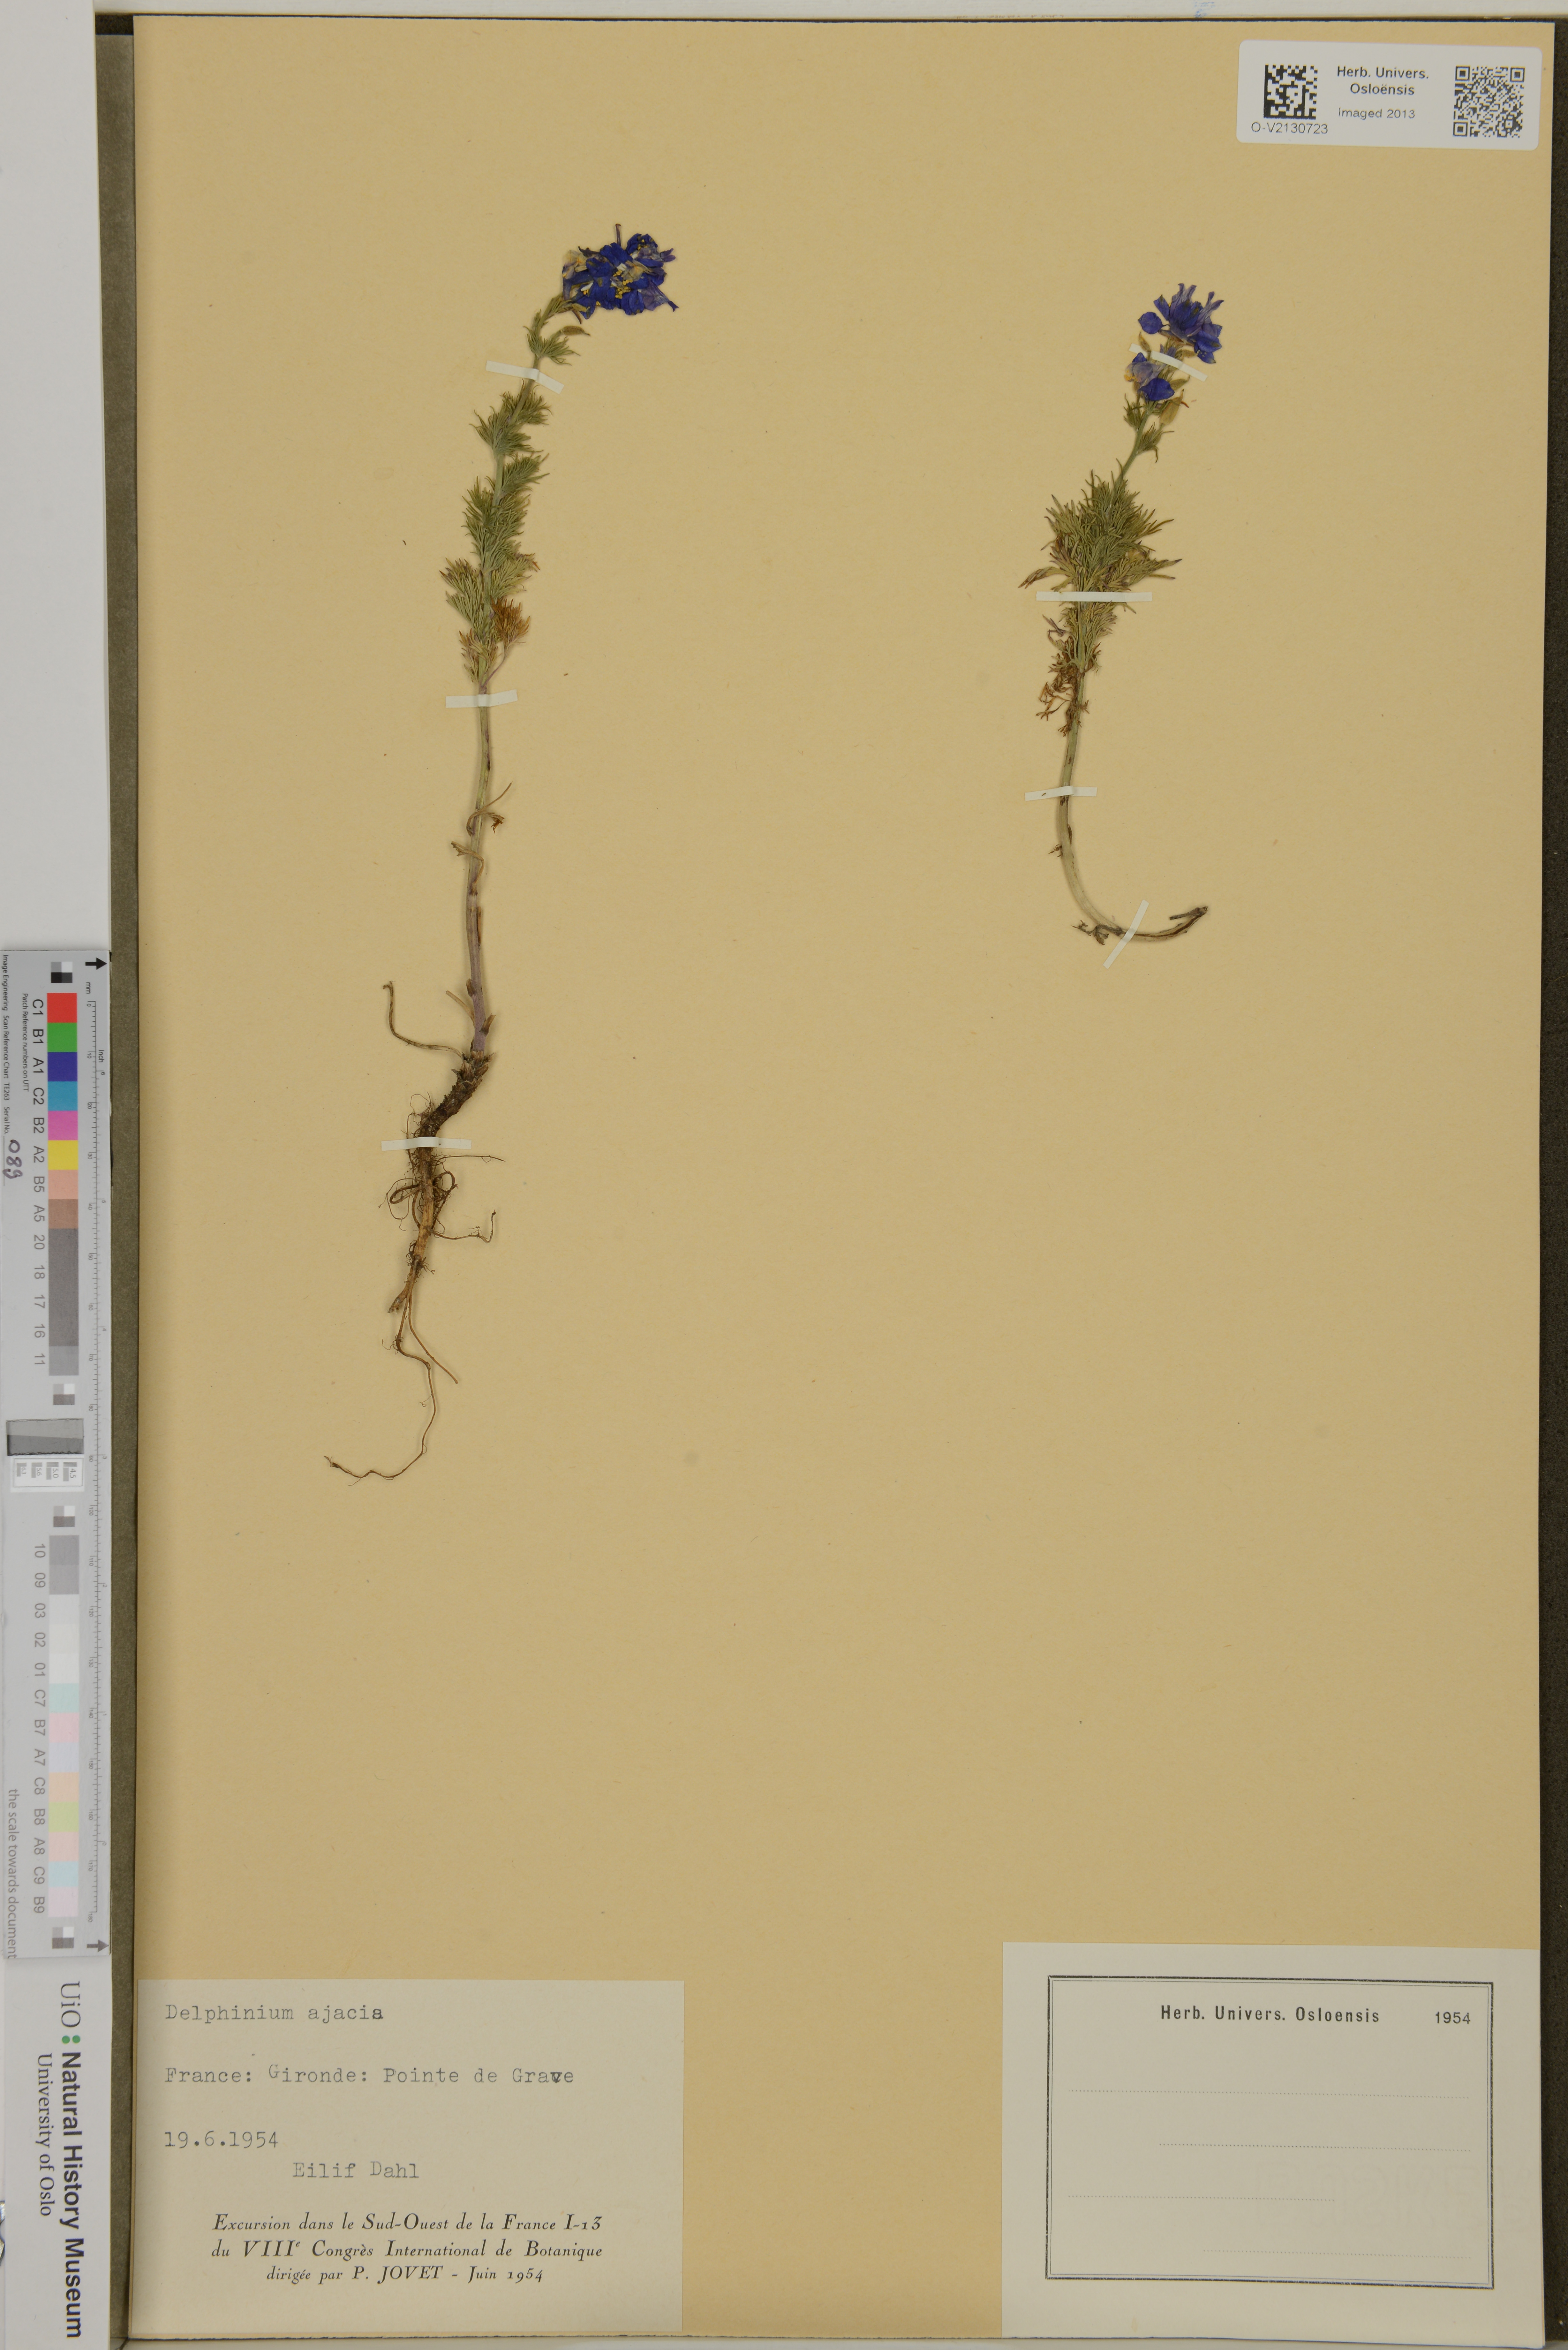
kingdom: Plantae
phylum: Tracheophyta
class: Magnoliopsida
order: Ranunculales
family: Ranunculaceae
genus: Delphinium
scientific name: Delphinium ajacis
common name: Doubtful knight's-spur
